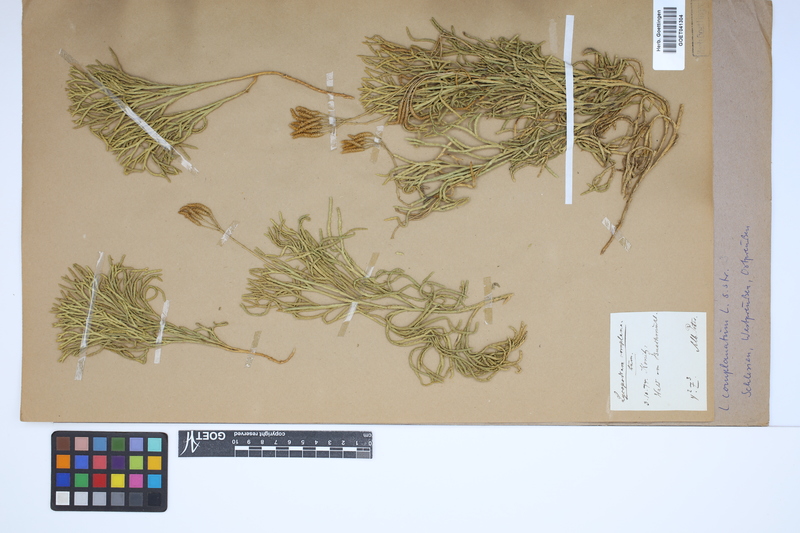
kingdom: Plantae
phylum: Tracheophyta
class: Lycopodiopsida
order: Lycopodiales
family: Lycopodiaceae
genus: Diphasiastrum
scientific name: Diphasiastrum complanatum
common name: Northern running-pine
